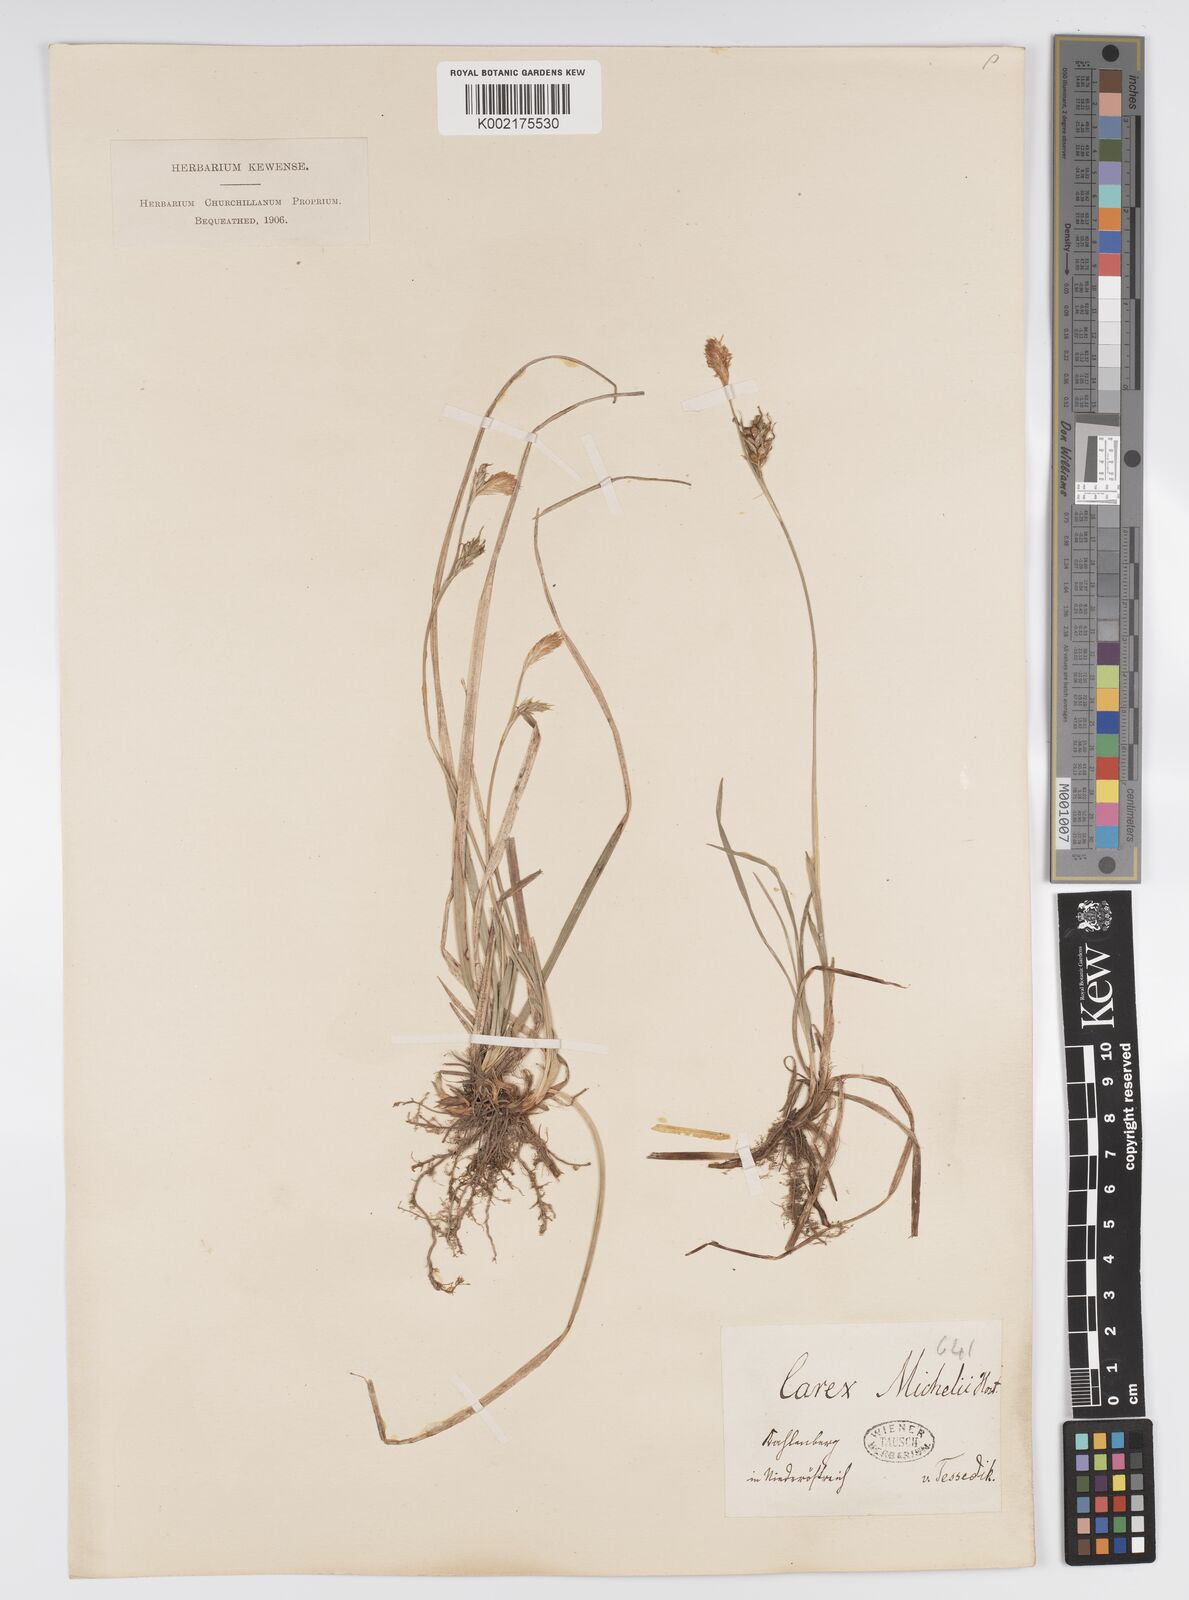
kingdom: Plantae
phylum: Tracheophyta
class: Liliopsida
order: Poales
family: Cyperaceae
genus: Carex
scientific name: Carex michelii
